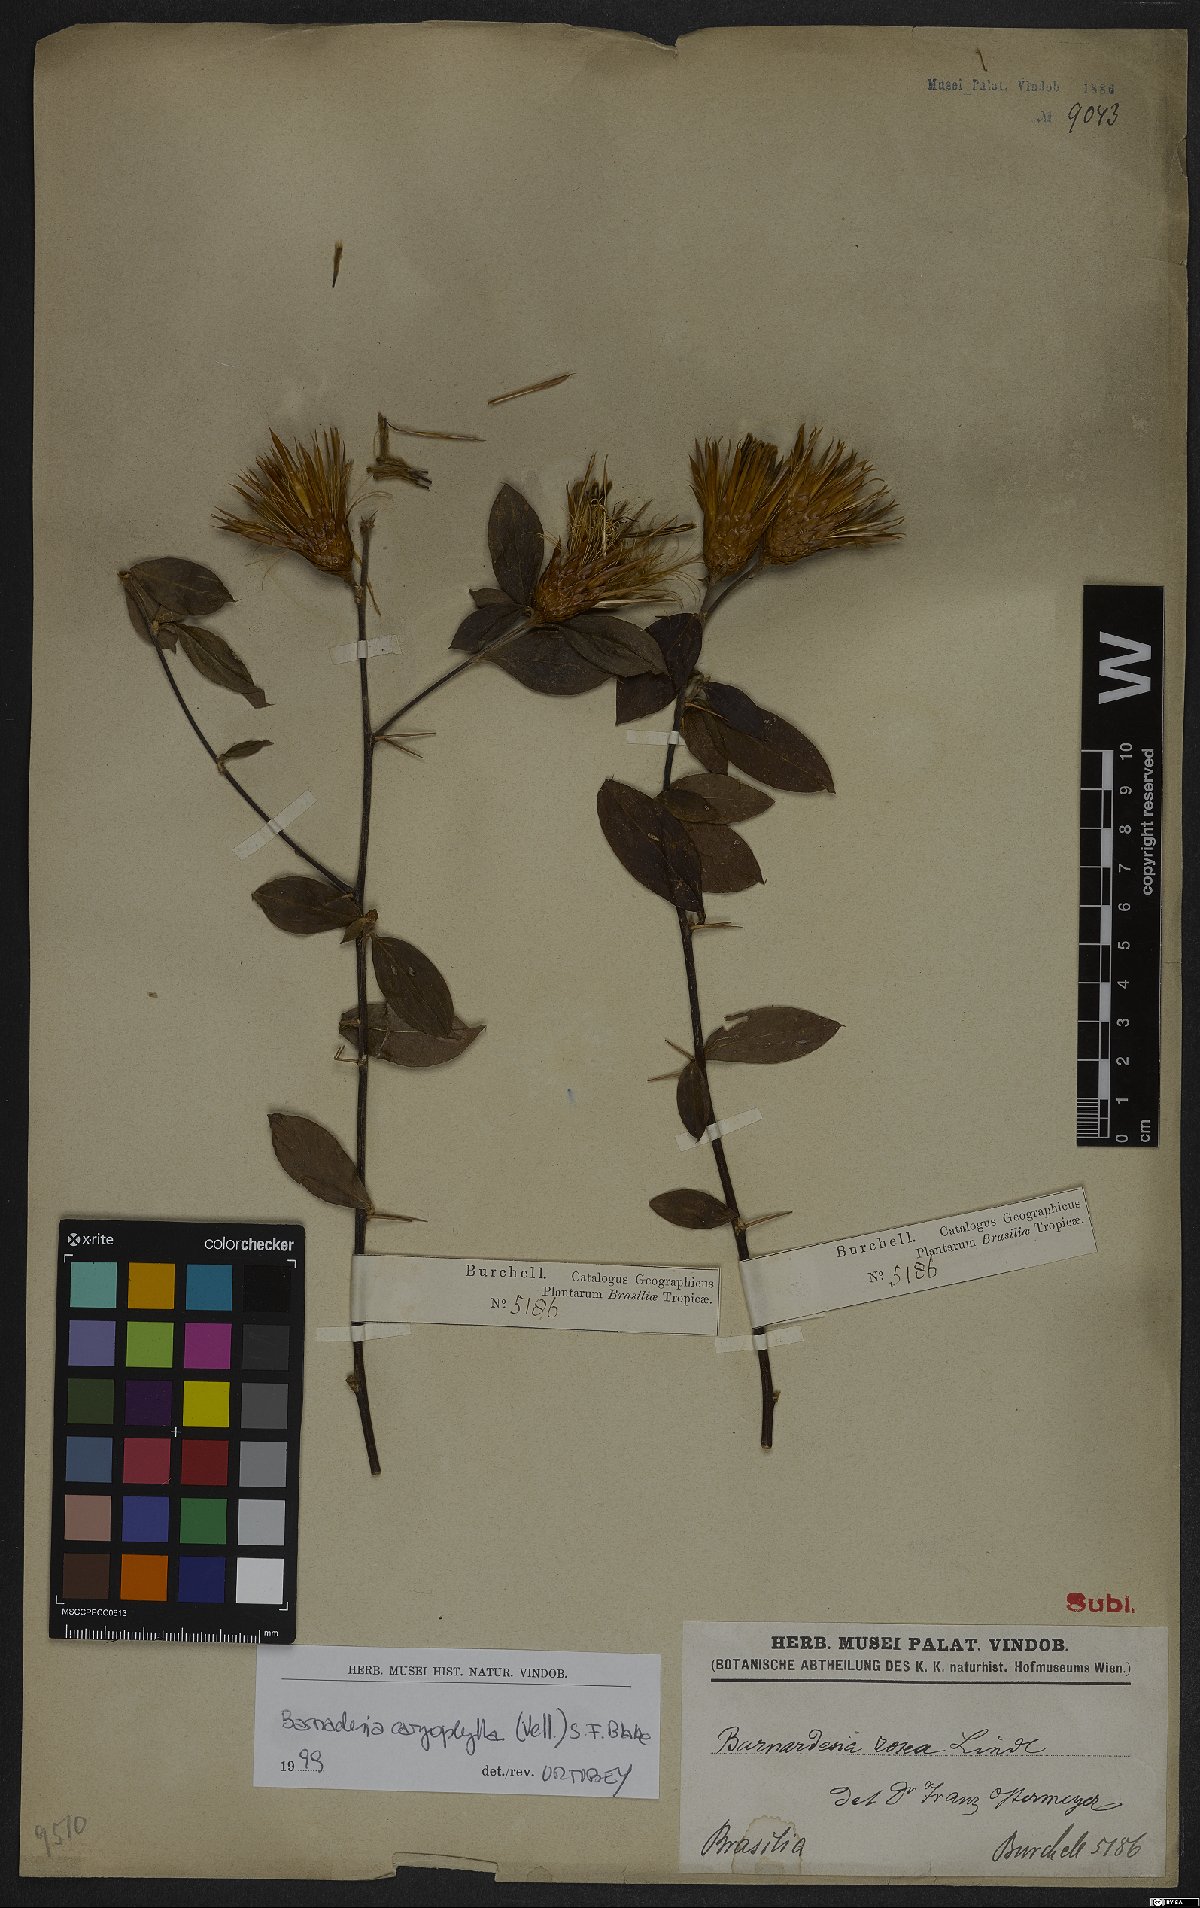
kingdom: Plantae
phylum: Tracheophyta
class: Magnoliopsida
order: Asterales
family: Asteraceae
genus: Barnadesia
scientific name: Barnadesia caryophylla
